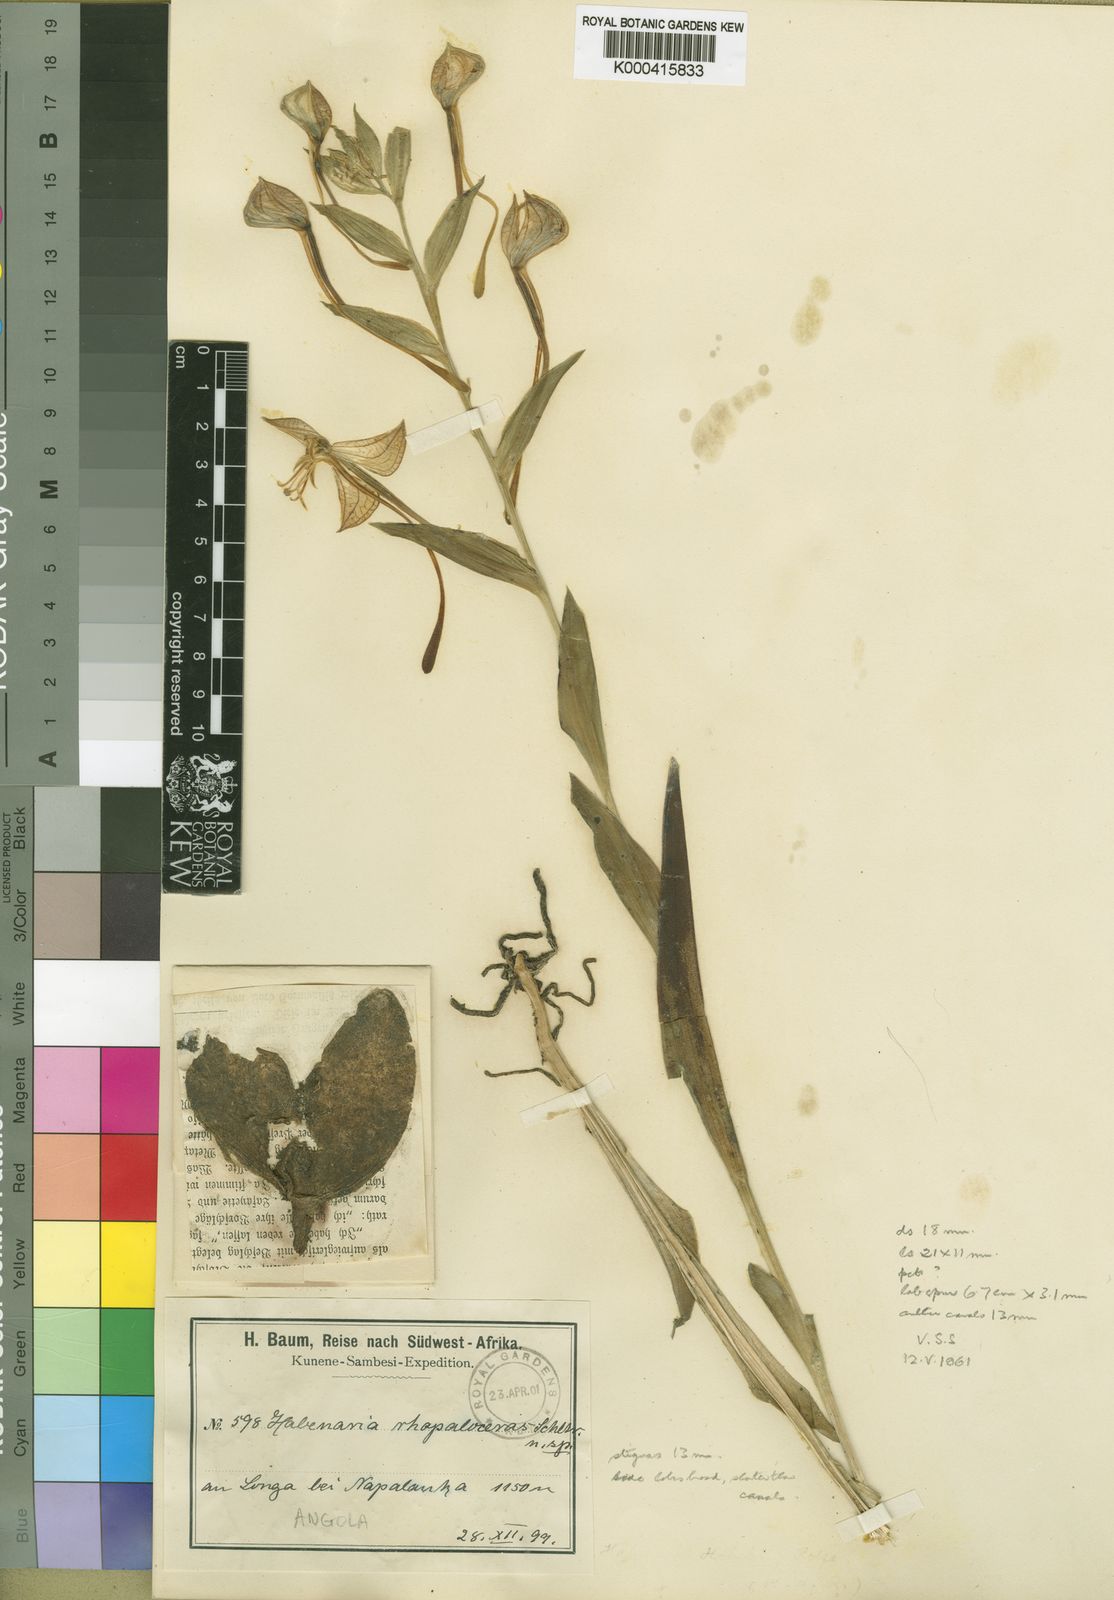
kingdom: Plantae
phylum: Tracheophyta
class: Liliopsida
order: Asparagales
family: Orchidaceae
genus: Habenaria
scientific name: Habenaria holubii
